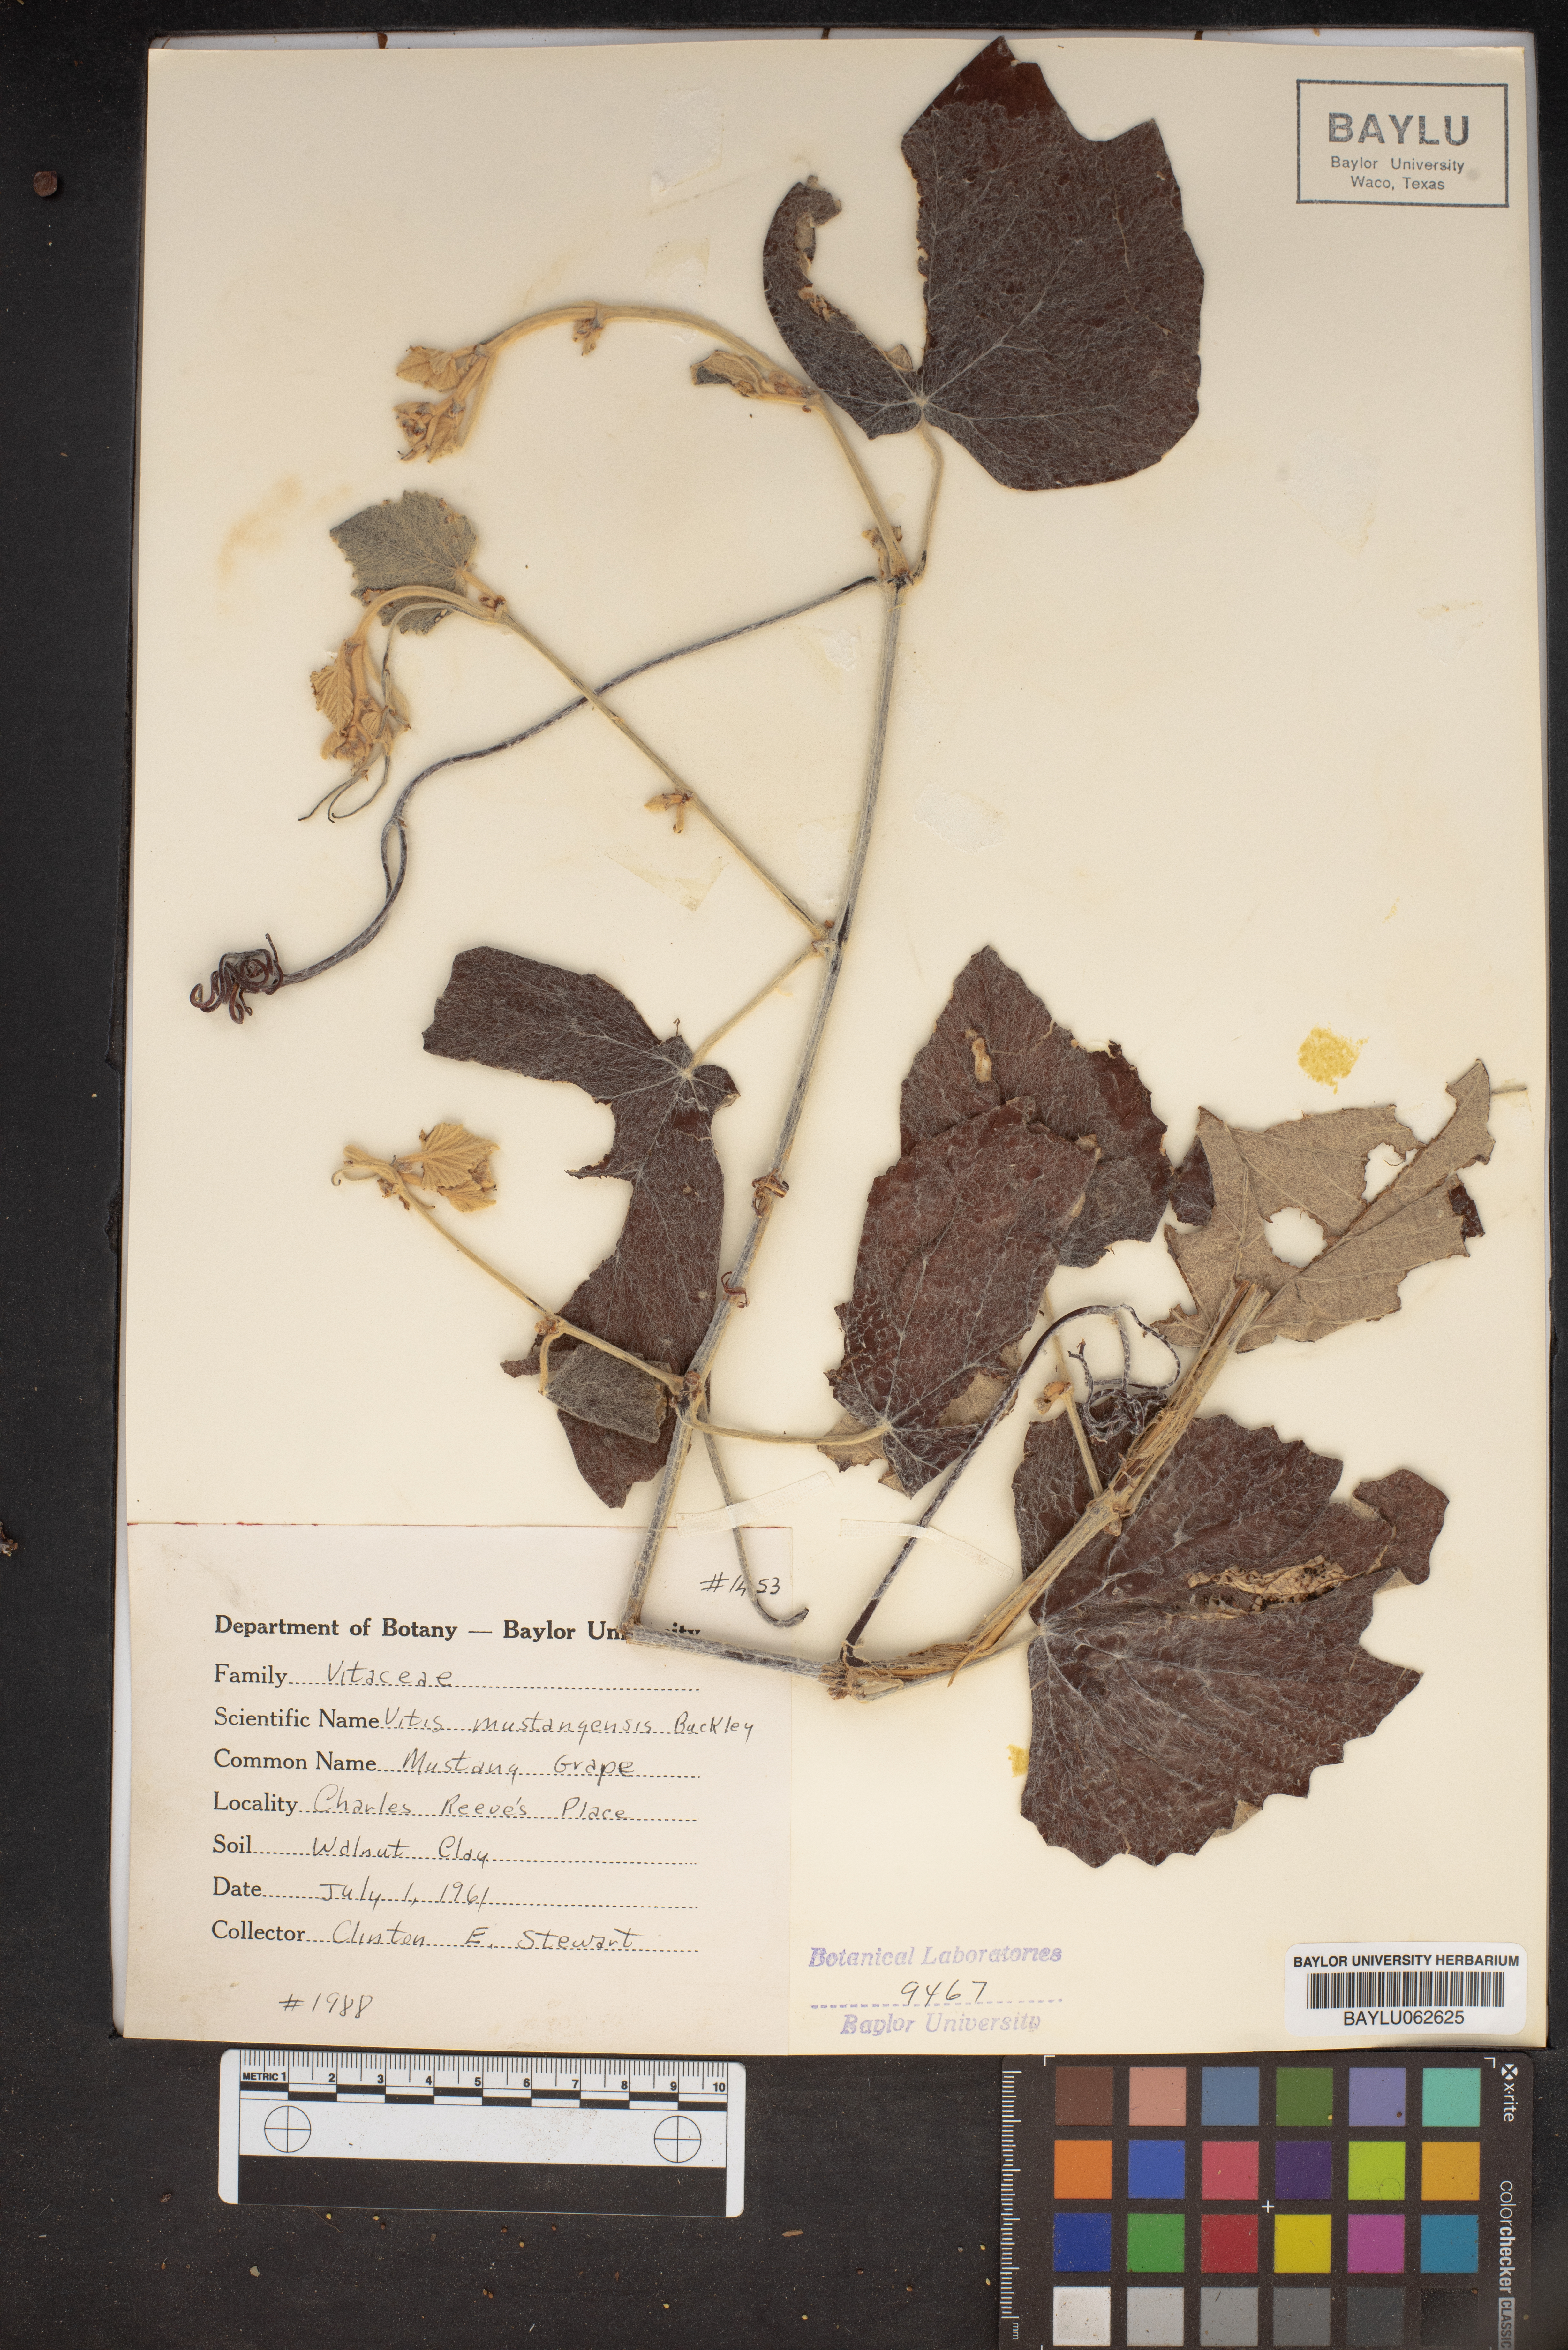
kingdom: Plantae
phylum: Tracheophyta
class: Magnoliopsida
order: Vitales
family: Vitaceae
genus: Vitis
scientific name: Vitis mustangensis
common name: Mustang grape
